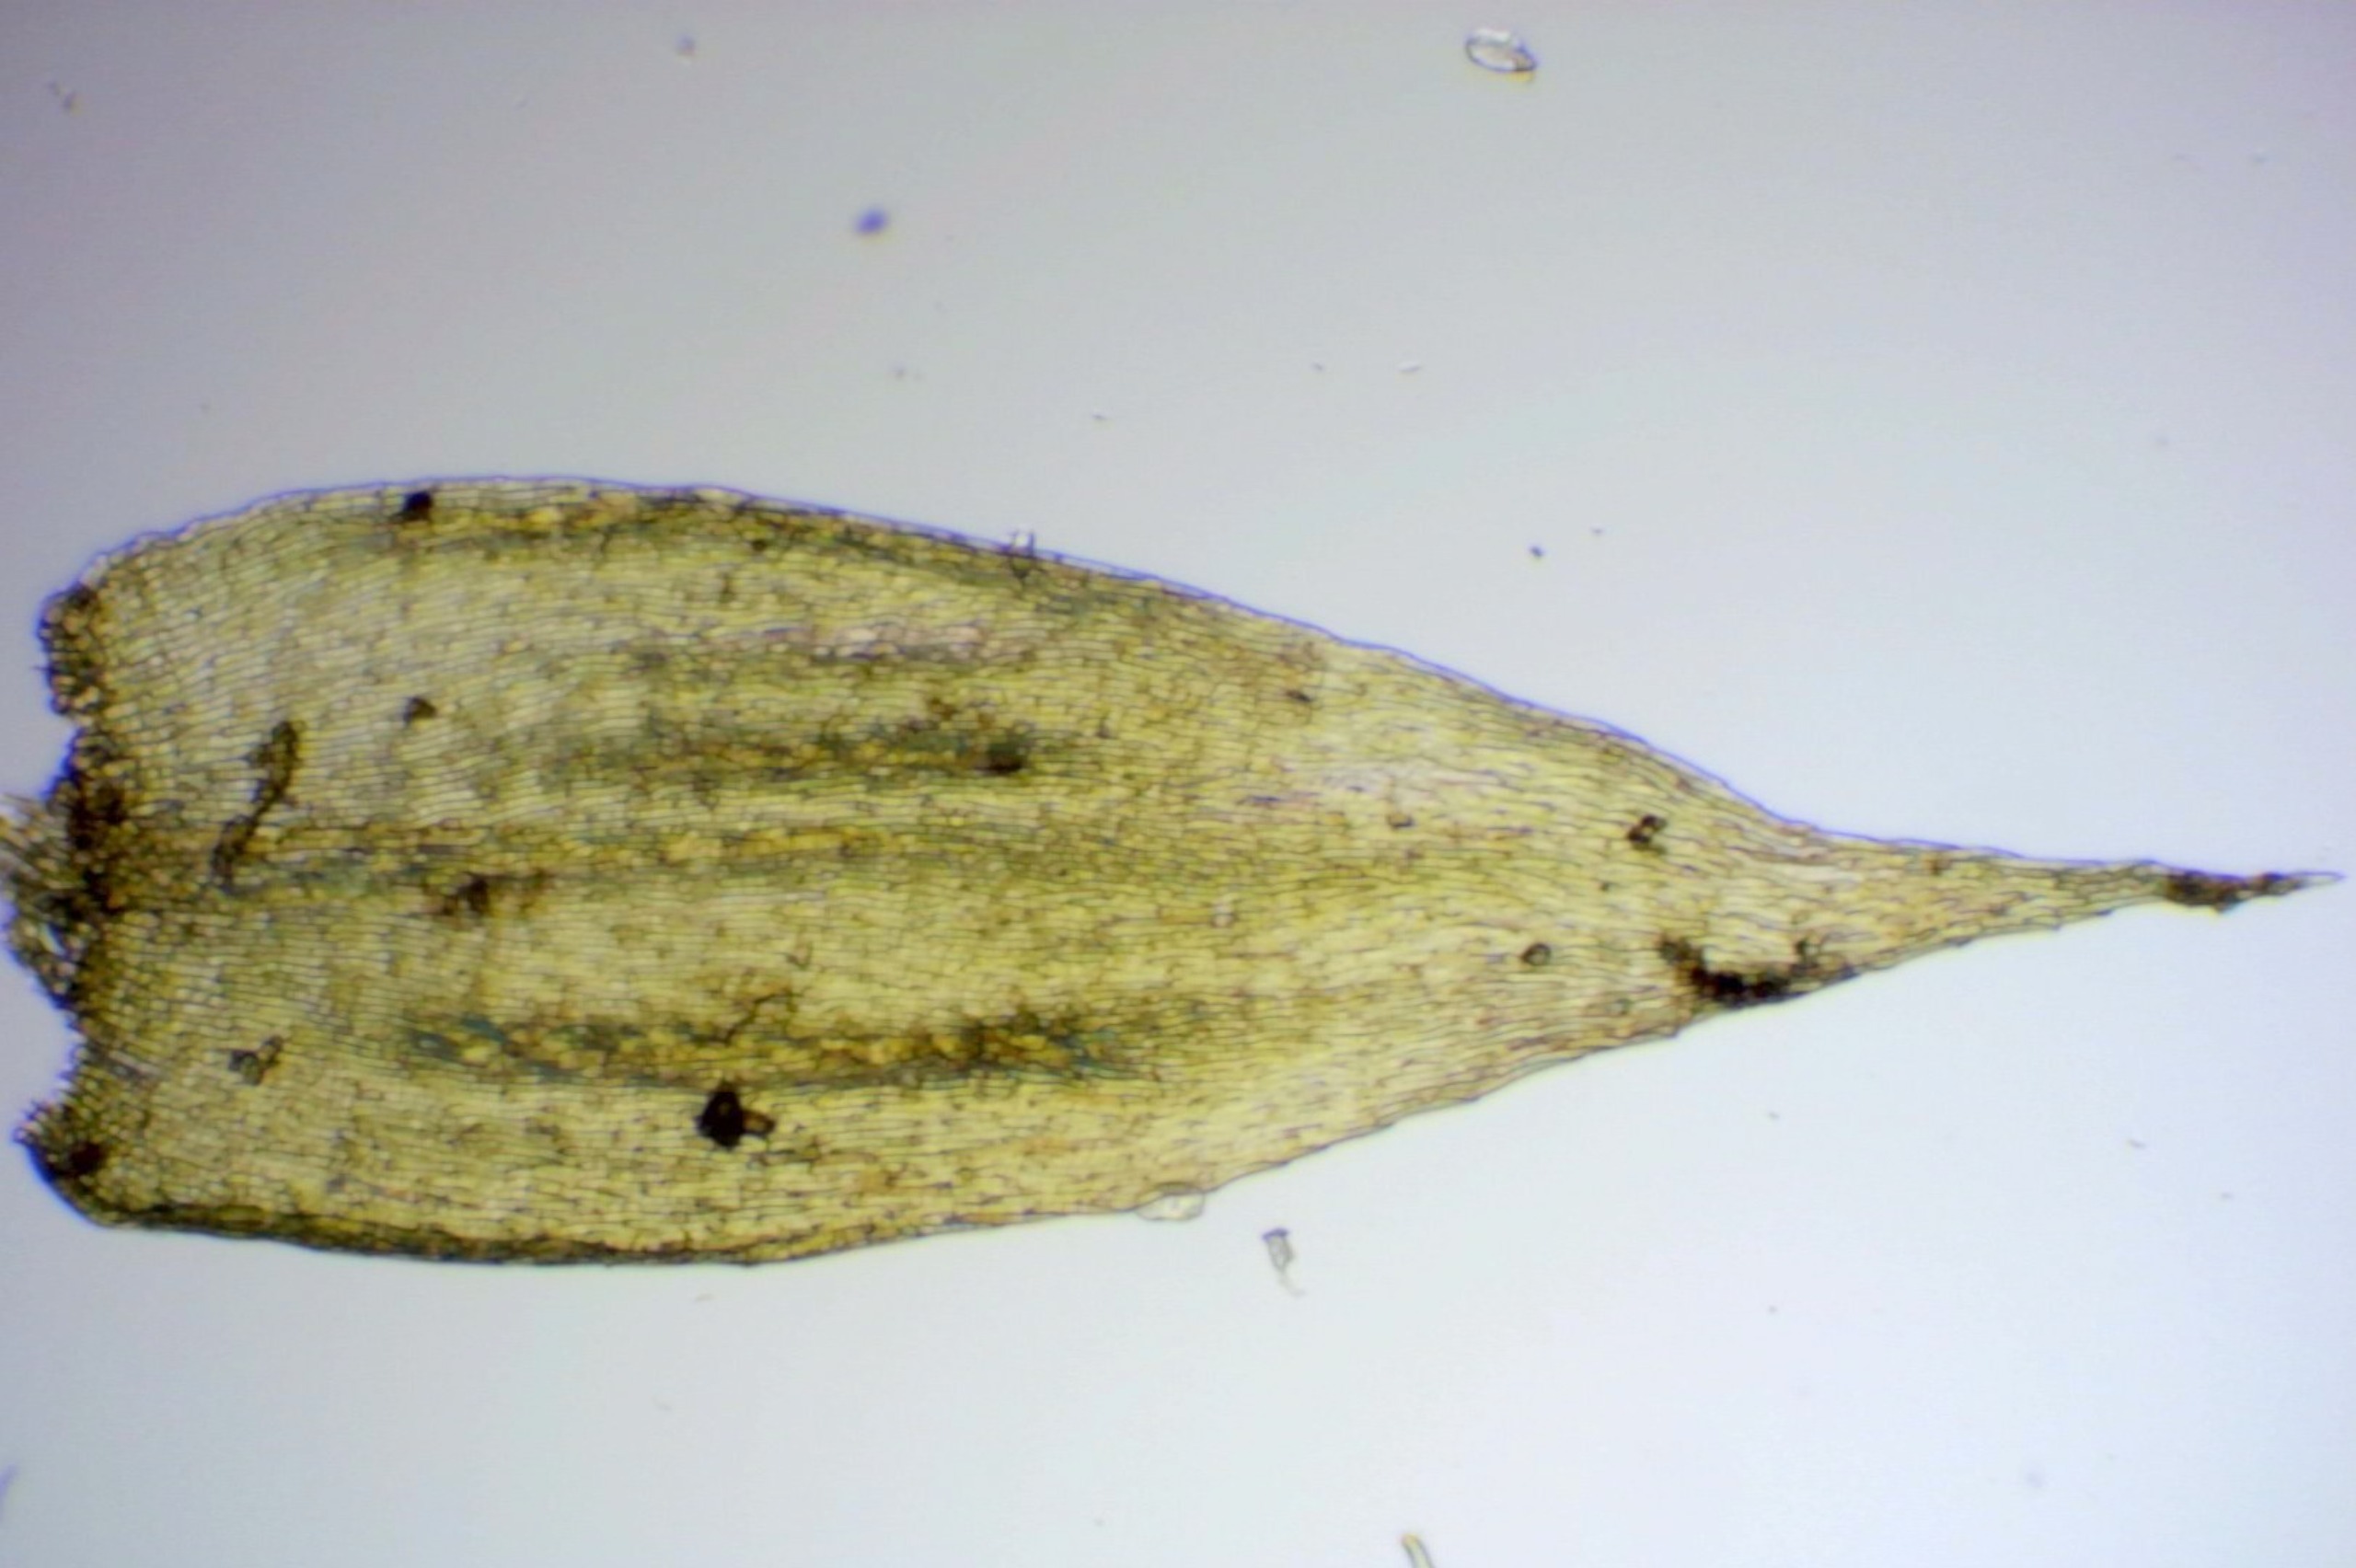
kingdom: Plantae
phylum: Bryophyta
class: Bryopsida
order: Hypnales
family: Plagiotheciaceae
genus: Pseudotaxiphyllum
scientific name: Pseudotaxiphyllum elegans
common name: Skinnende ynglegren
